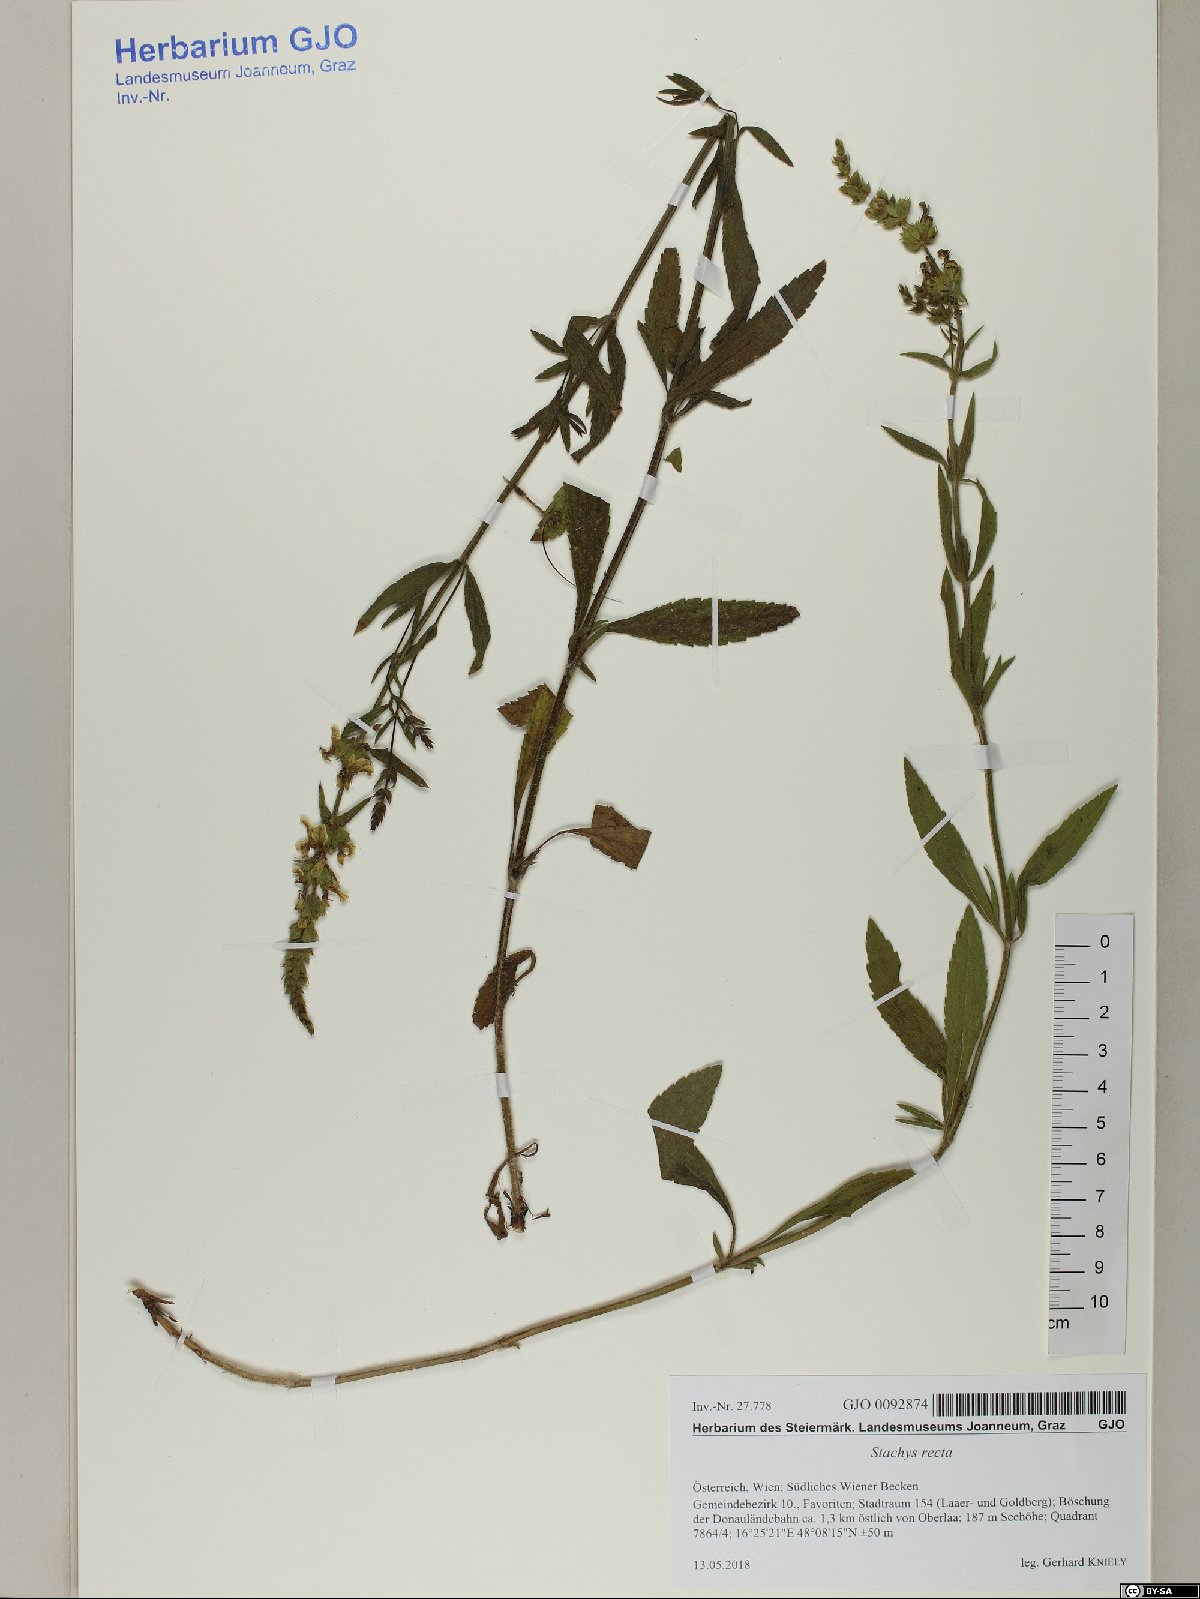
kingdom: Plantae
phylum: Tracheophyta
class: Magnoliopsida
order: Lamiales
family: Lamiaceae
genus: Stachys
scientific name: Stachys recta
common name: Perennial yellow-woundwort
